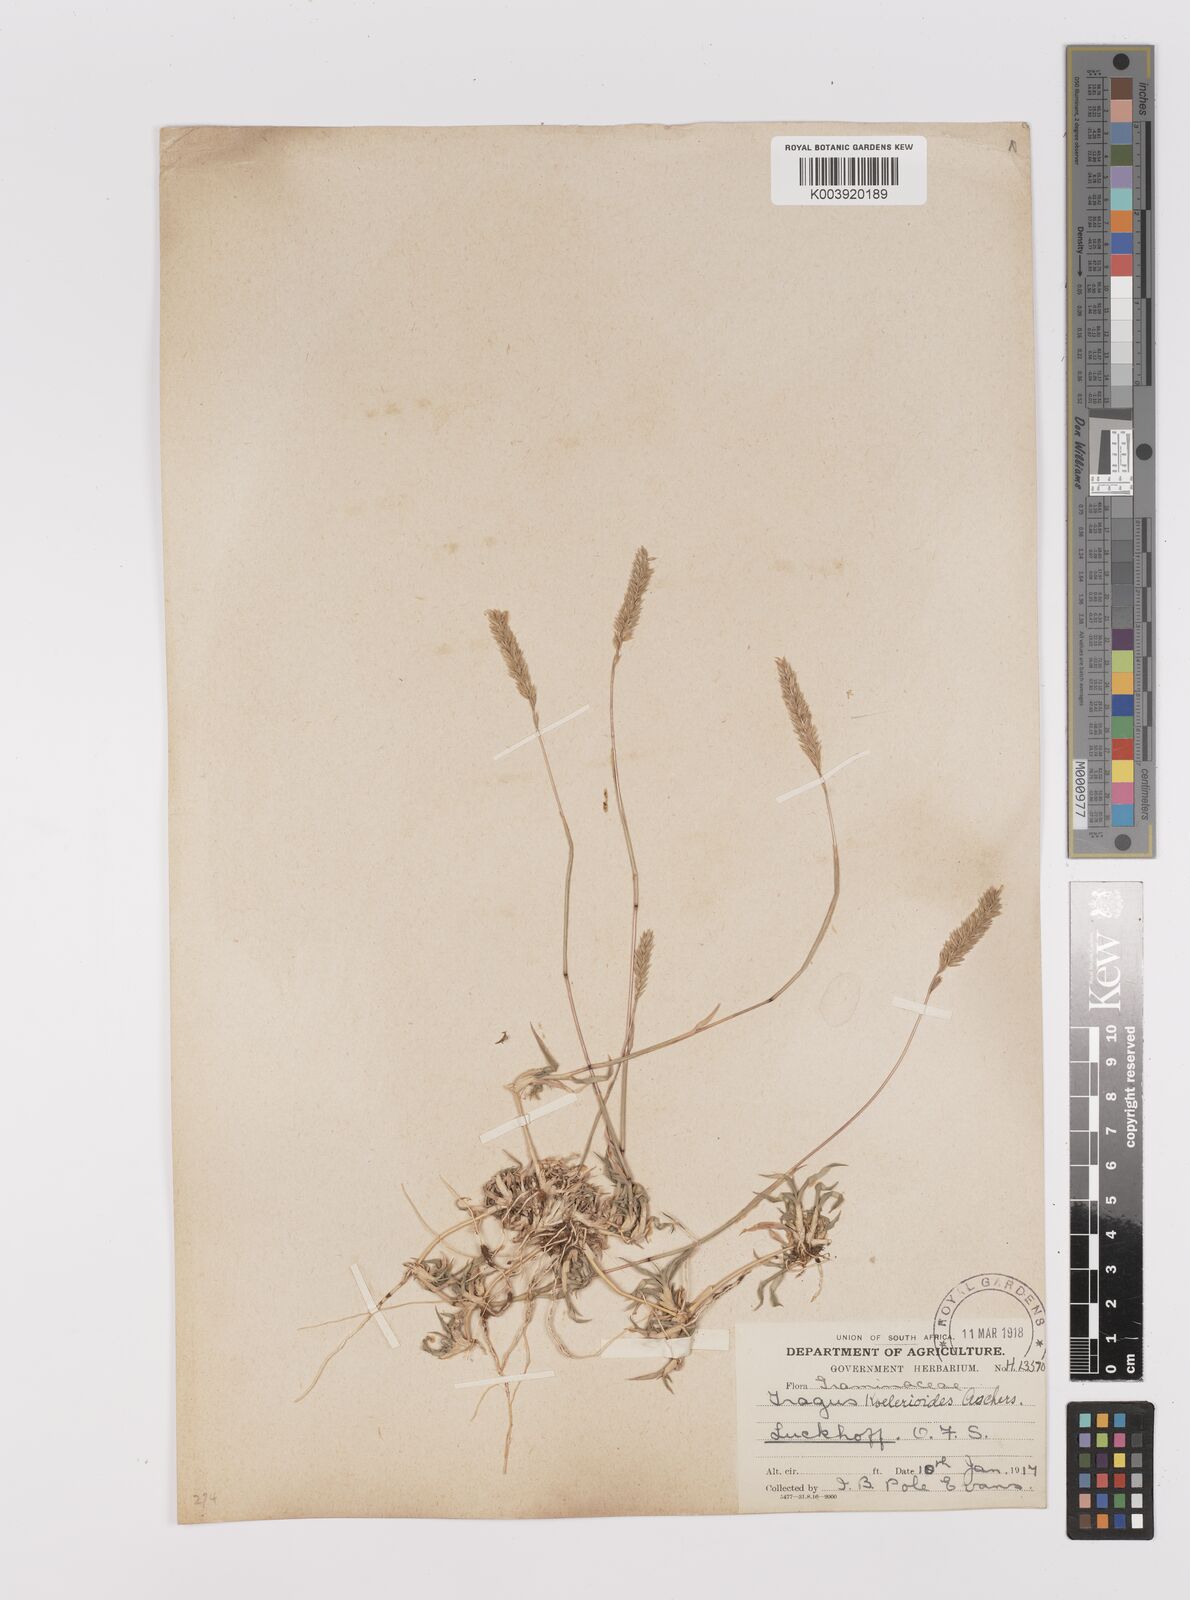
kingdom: Plantae
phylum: Tracheophyta
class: Liliopsida
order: Poales
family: Poaceae
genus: Tragus
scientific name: Tragus koelerioides
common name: Creeping carrot-seed grass
